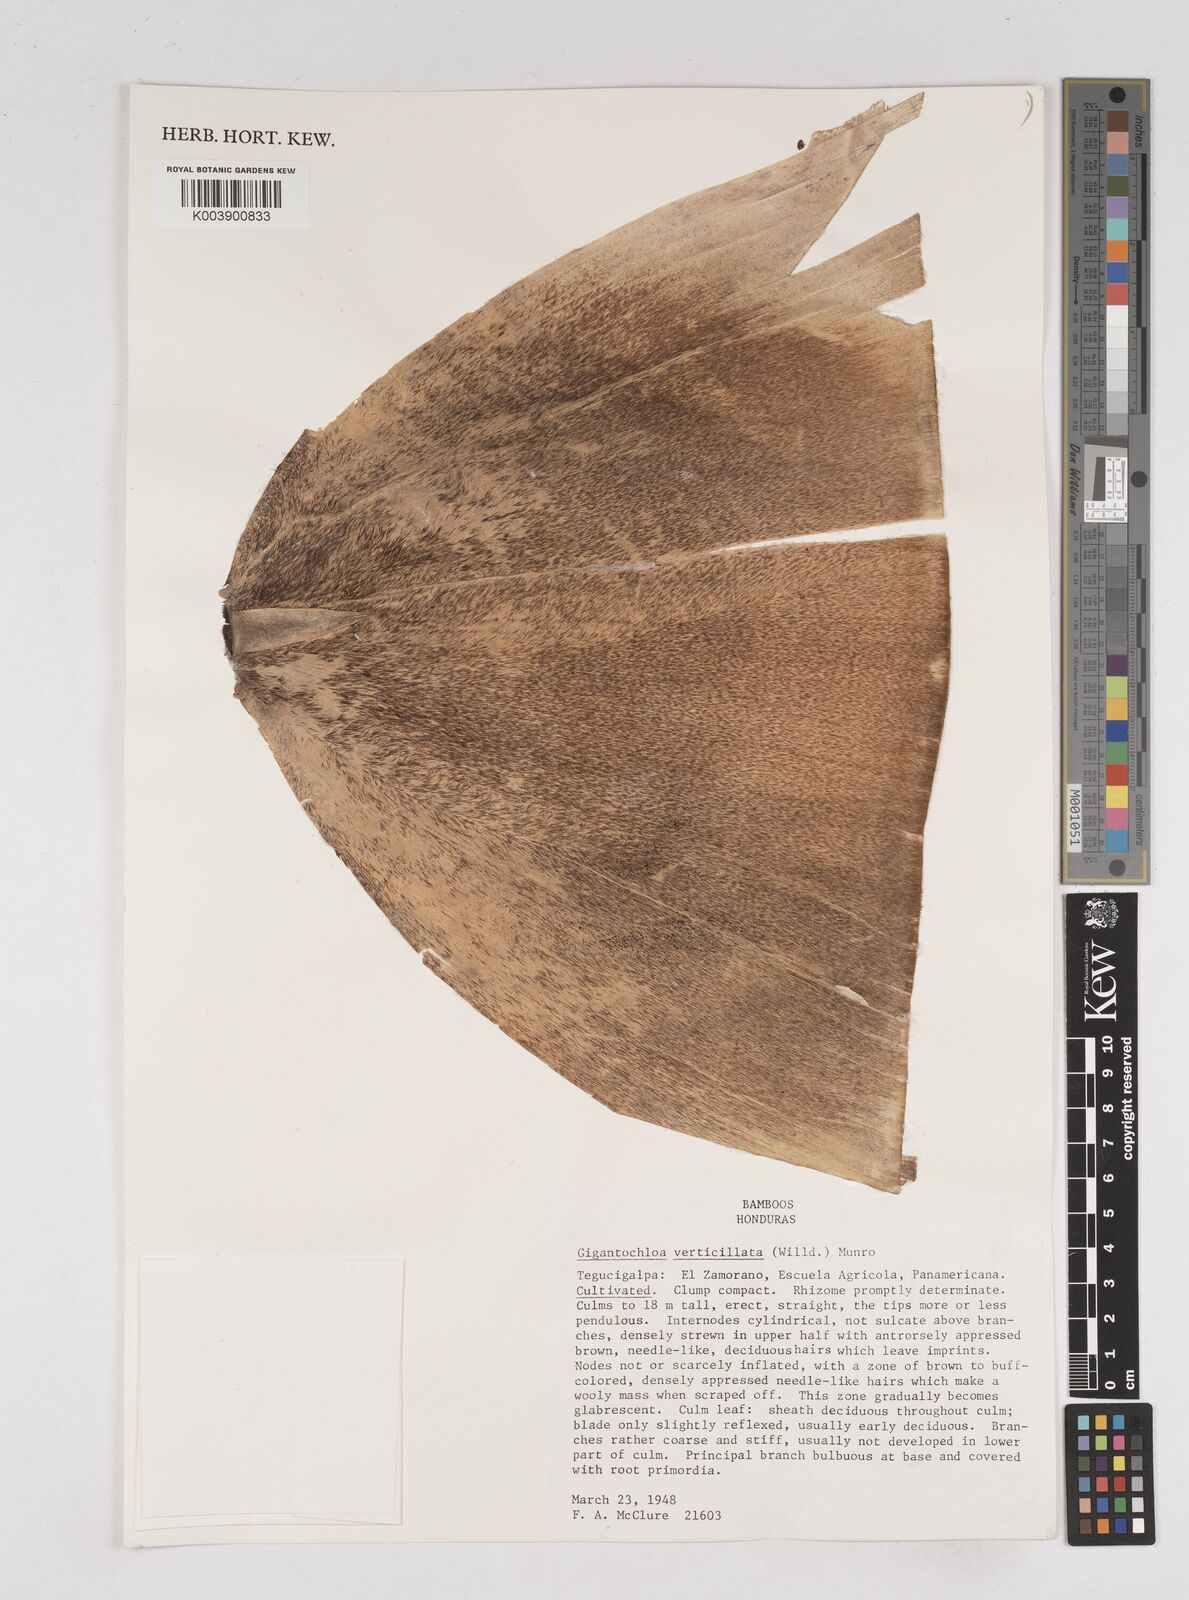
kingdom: Plantae
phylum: Tracheophyta
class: Liliopsida
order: Poales
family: Poaceae
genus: Gigantochloa
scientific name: Gigantochloa verticillata
